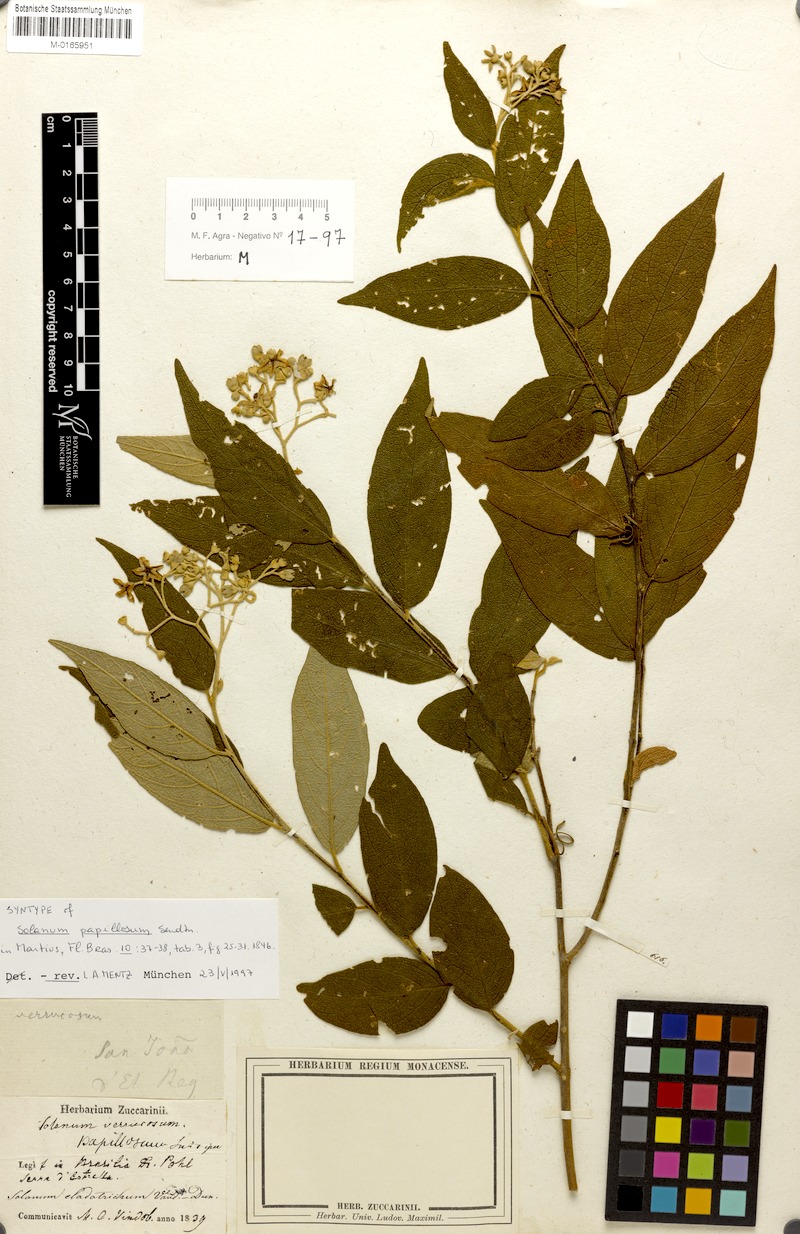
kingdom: Plantae
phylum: Tracheophyta
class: Magnoliopsida
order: Solanales
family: Solanaceae
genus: Solanum
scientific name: Solanum cladotrichum
